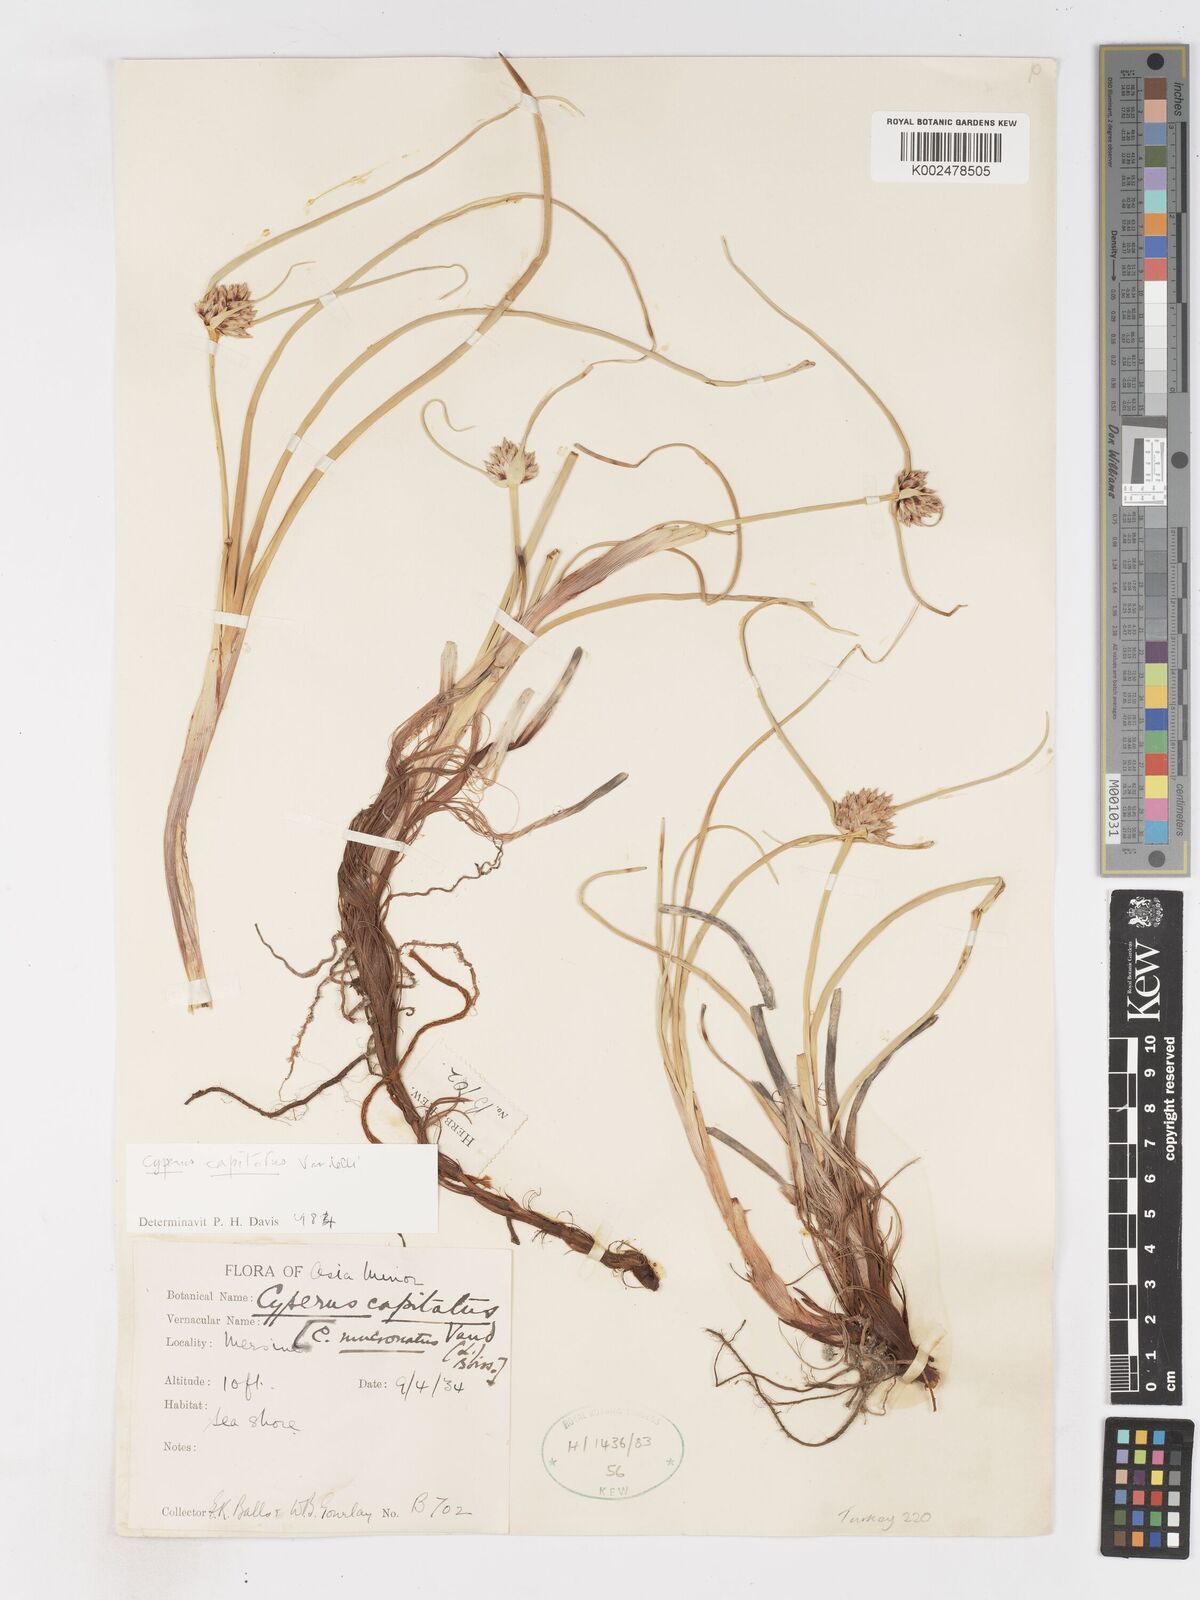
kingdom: Plantae
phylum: Tracheophyta
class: Liliopsida
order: Poales
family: Cyperaceae
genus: Cyperus
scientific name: Cyperus capitatus
